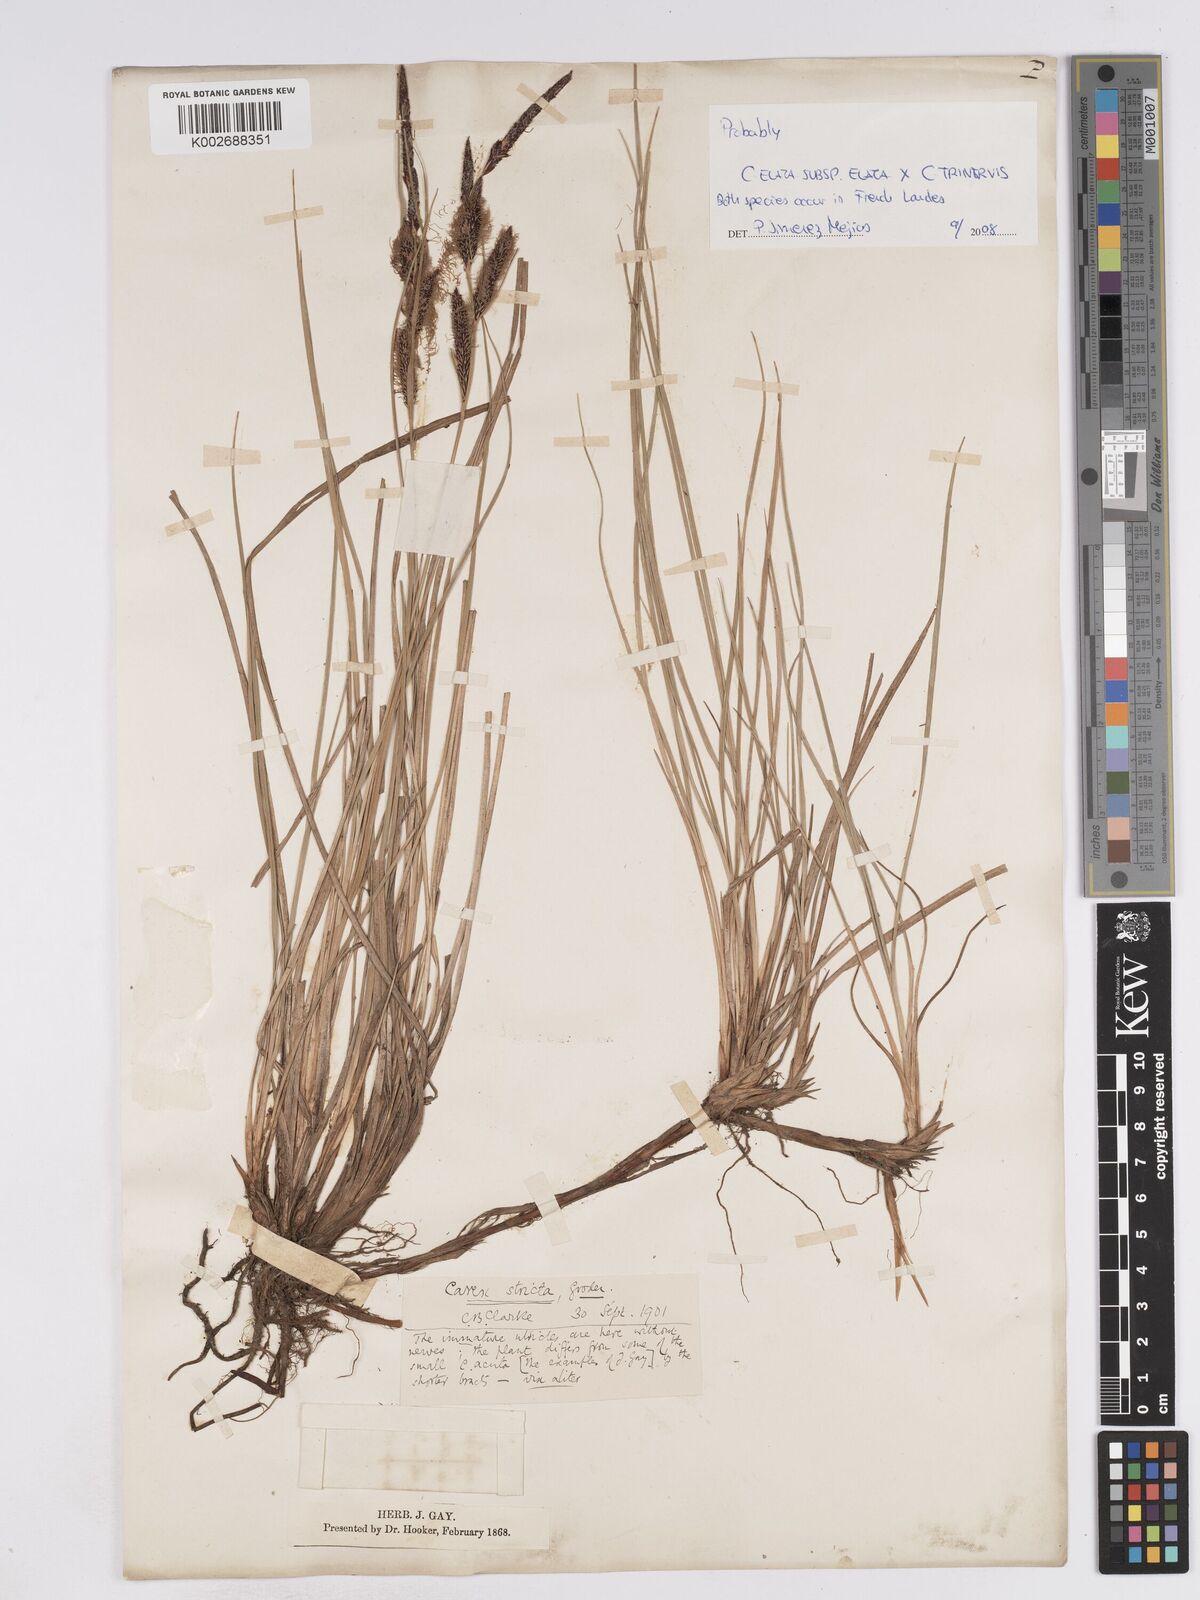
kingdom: Plantae
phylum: Tracheophyta
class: Liliopsida
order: Poales
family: Cyperaceae
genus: Carex
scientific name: Carex elata
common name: Tufted sedge
